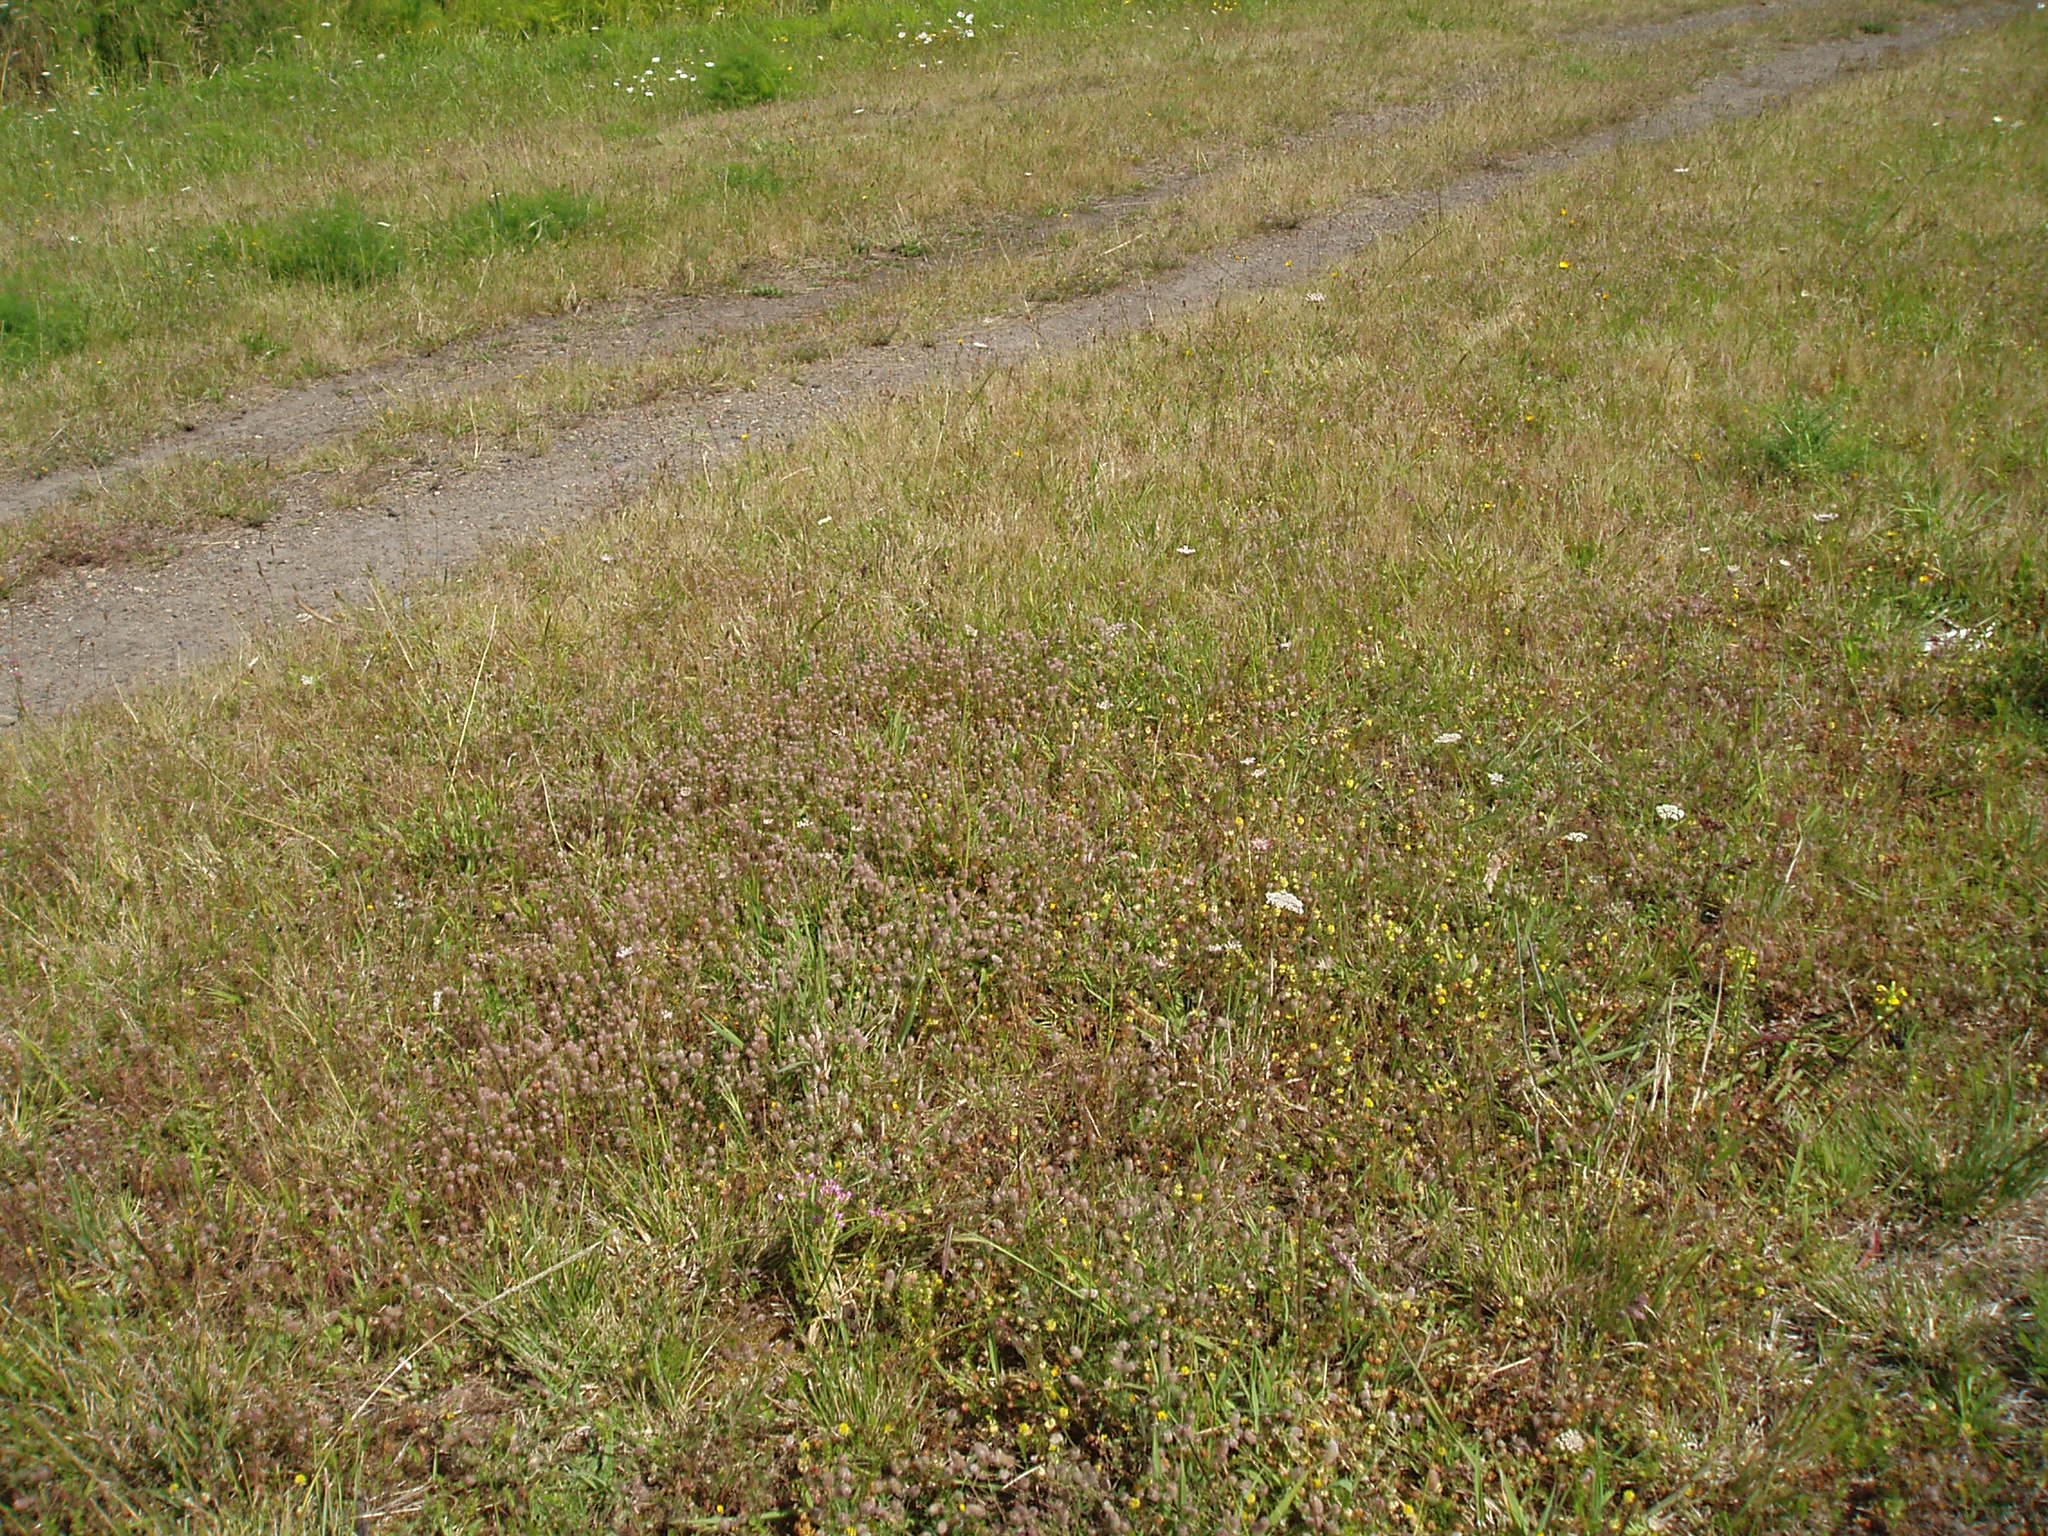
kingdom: Plantae
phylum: Tracheophyta
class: Magnoliopsida
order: Fabales
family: Fabaceae
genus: Trifolium
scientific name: Trifolium campestre
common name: Field clover
